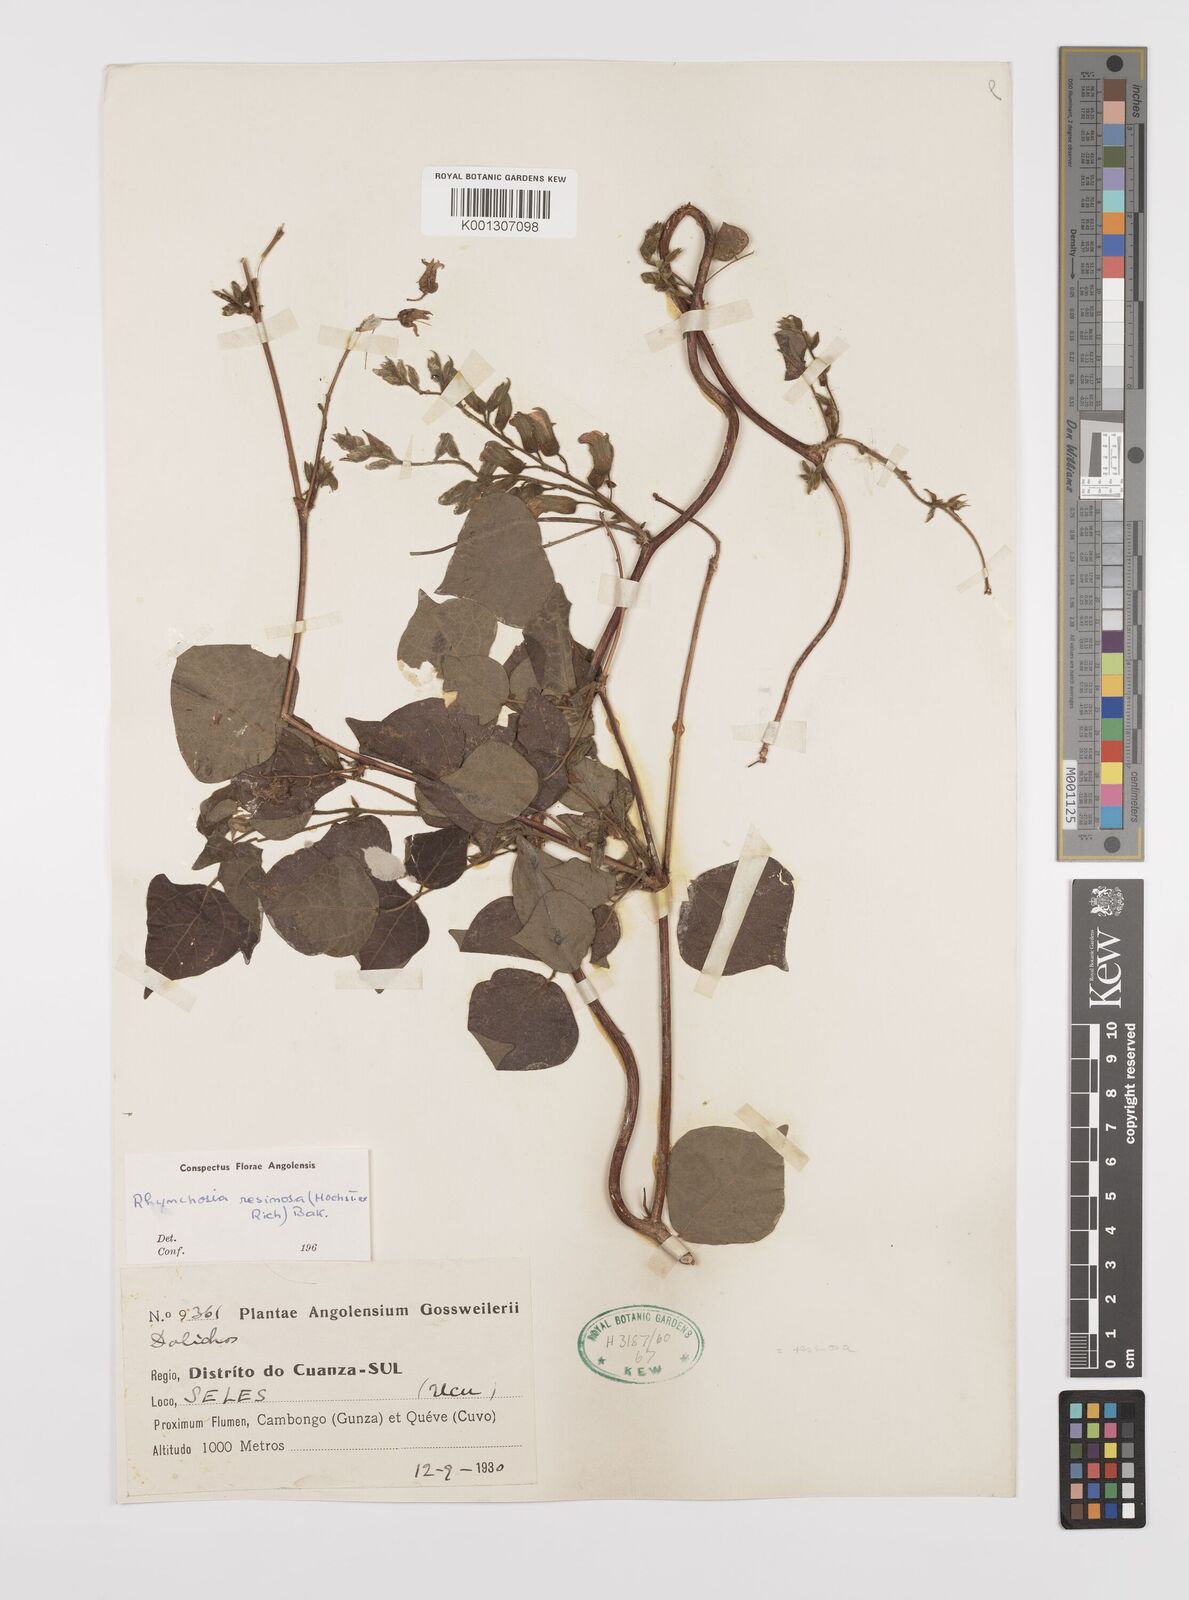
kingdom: Plantae
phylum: Tracheophyta
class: Magnoliopsida
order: Fabales
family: Fabaceae
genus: Rhynchosia
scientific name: Rhynchosia resinosa
